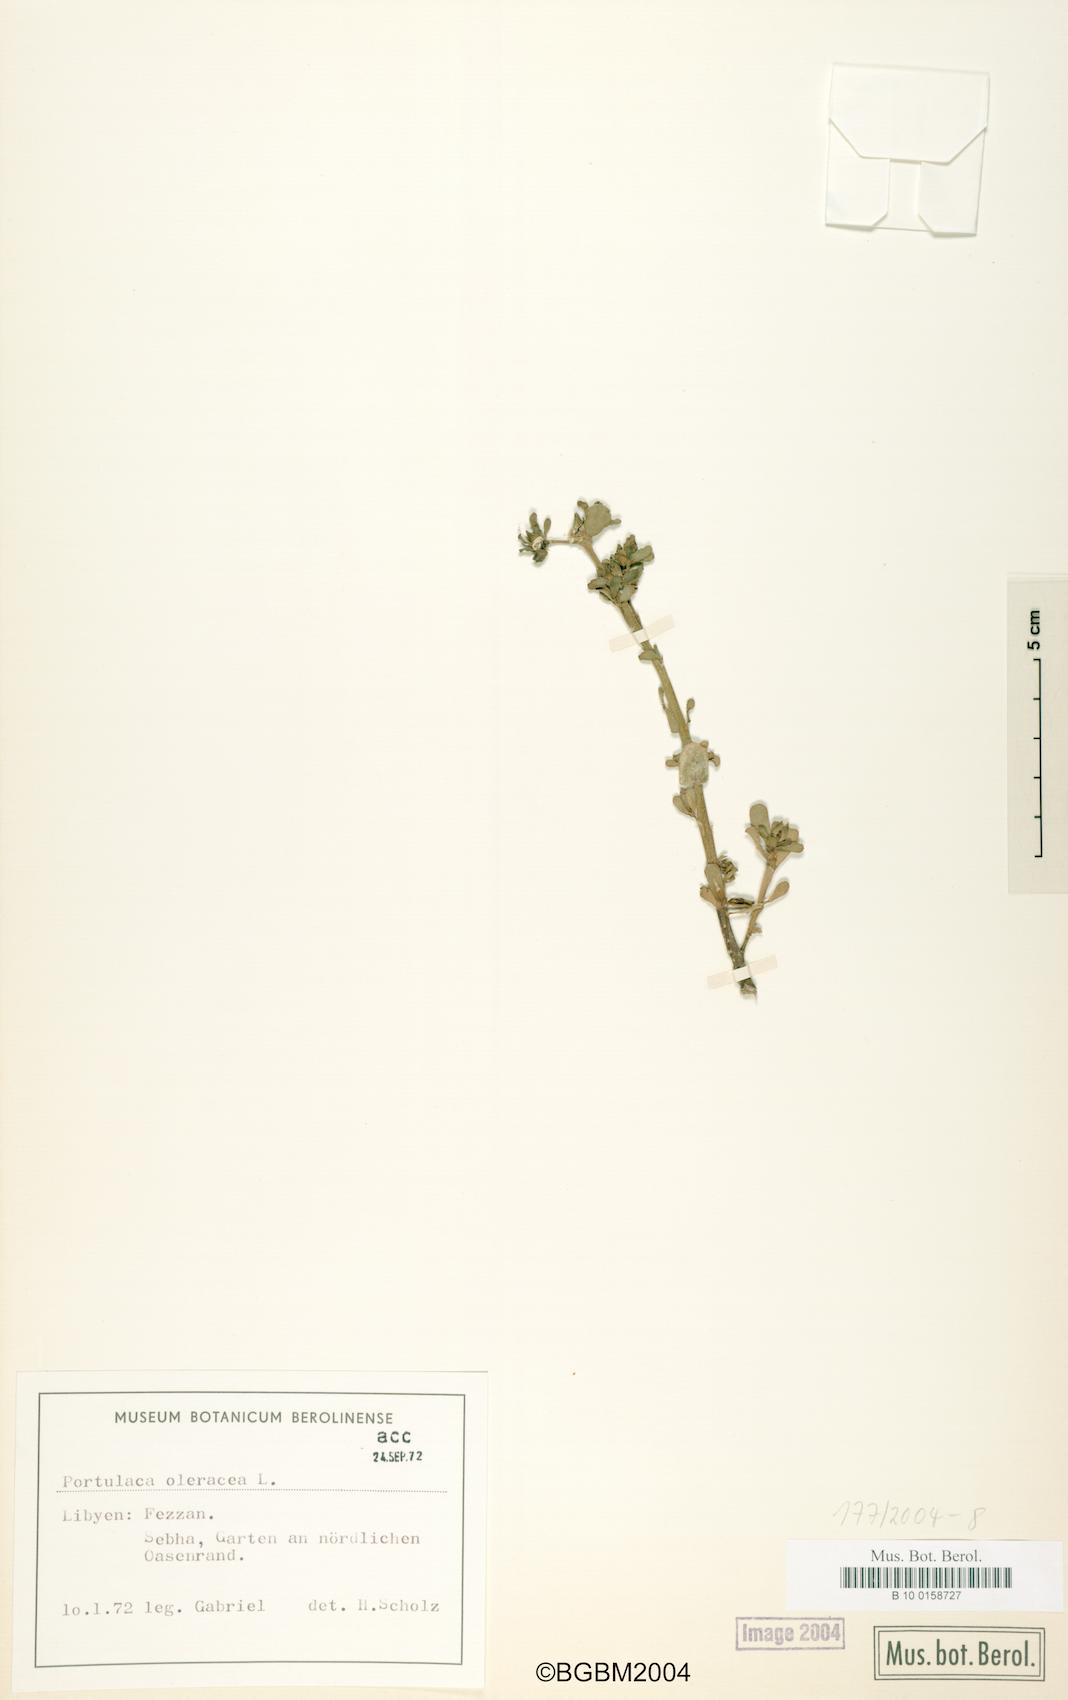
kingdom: Plantae
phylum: Tracheophyta
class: Magnoliopsida
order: Caryophyllales
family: Portulacaceae
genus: Portulaca
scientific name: Portulaca oleracea
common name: Common purslane
